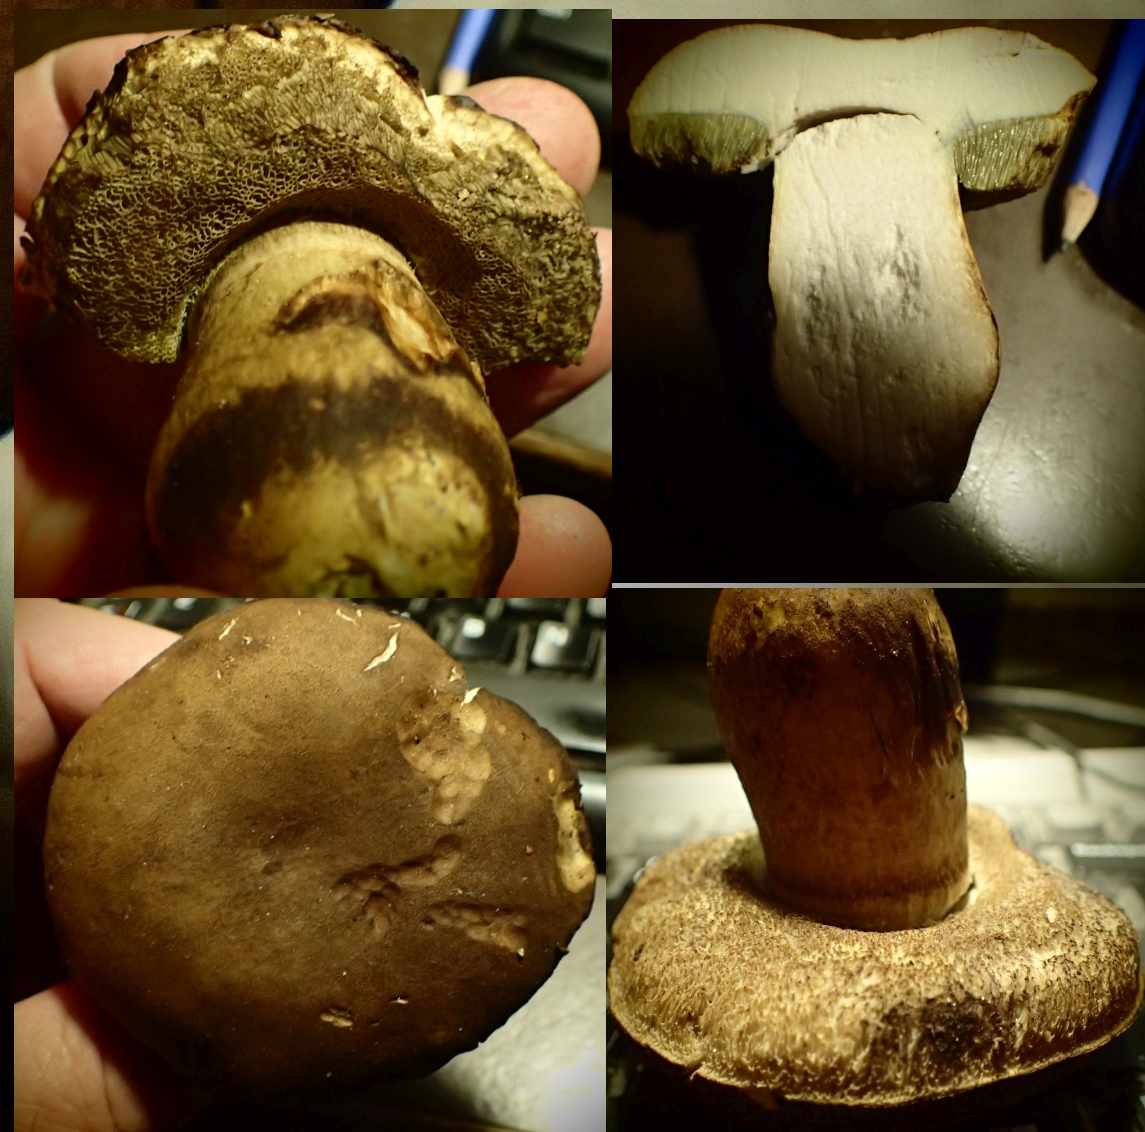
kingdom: Fungi
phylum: Basidiomycota
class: Agaricomycetes
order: Boletales
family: Boletaceae
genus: Porphyrellus
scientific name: Porphyrellus porphyrosporus
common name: sodrørhat
